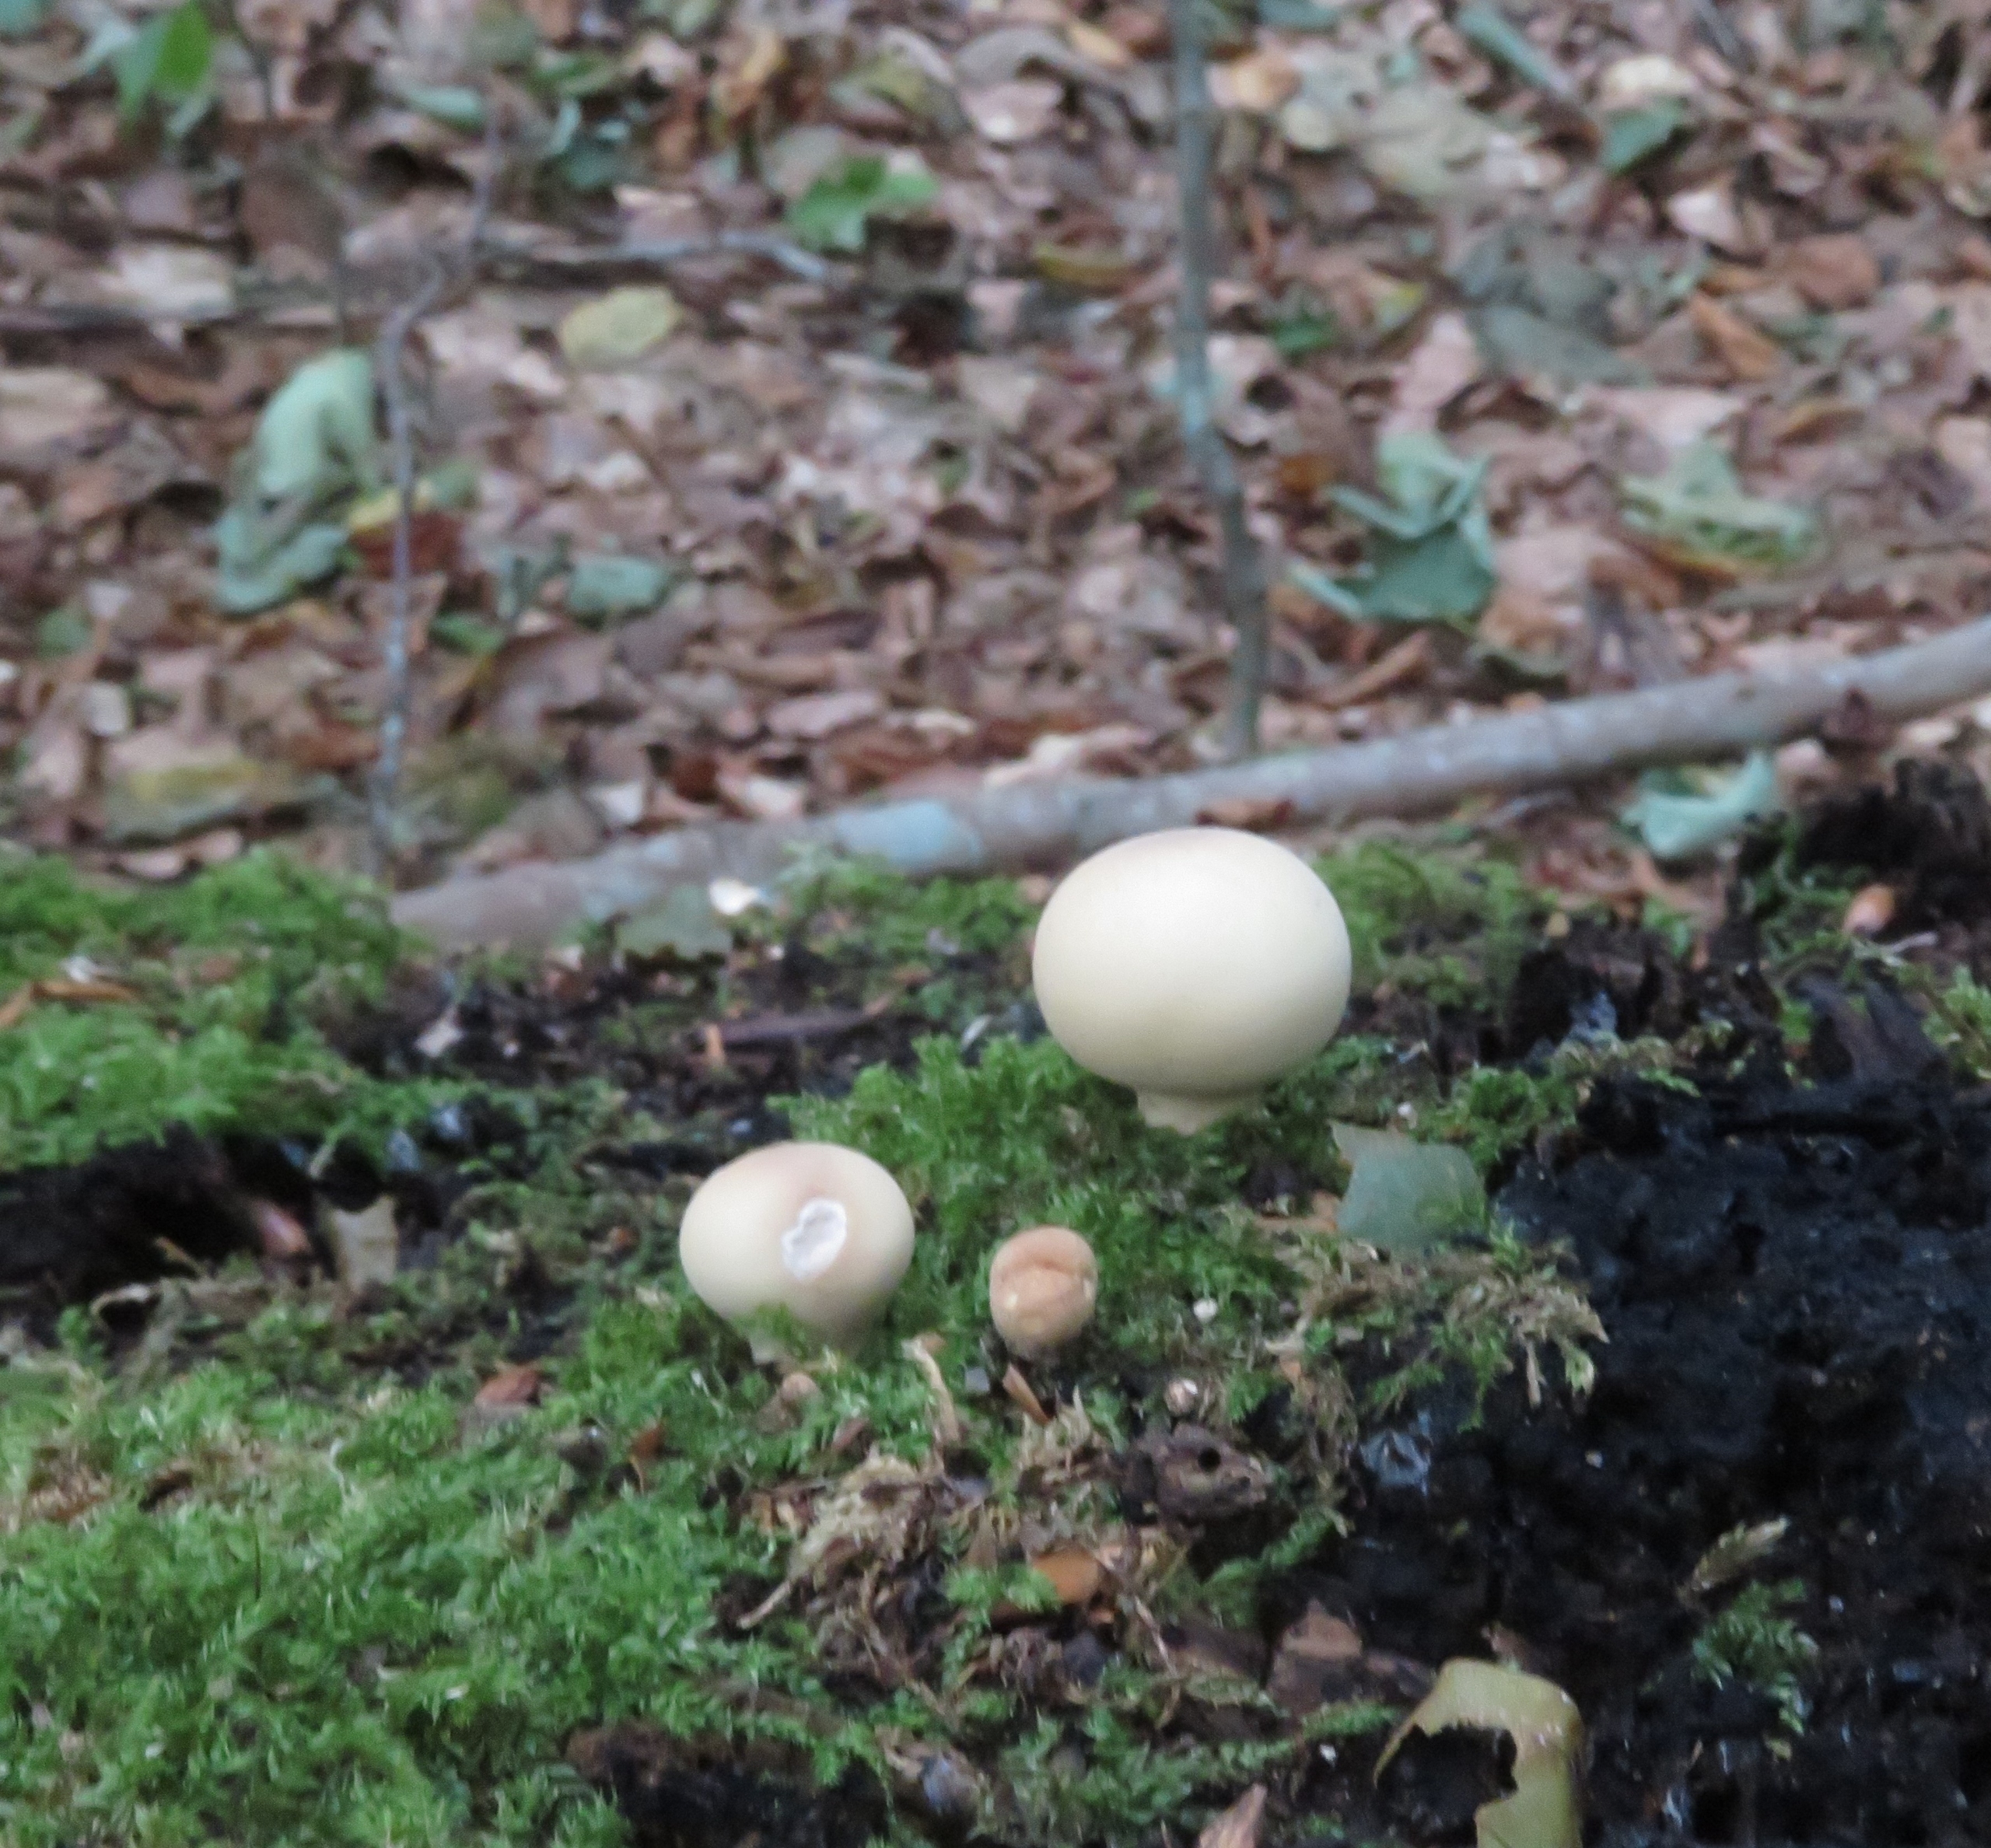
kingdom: Fungi
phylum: Basidiomycota
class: Agaricomycetes
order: Agaricales
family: Lycoperdaceae
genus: Apioperdon
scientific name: Apioperdon pyriforme
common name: Pære-støvbold
